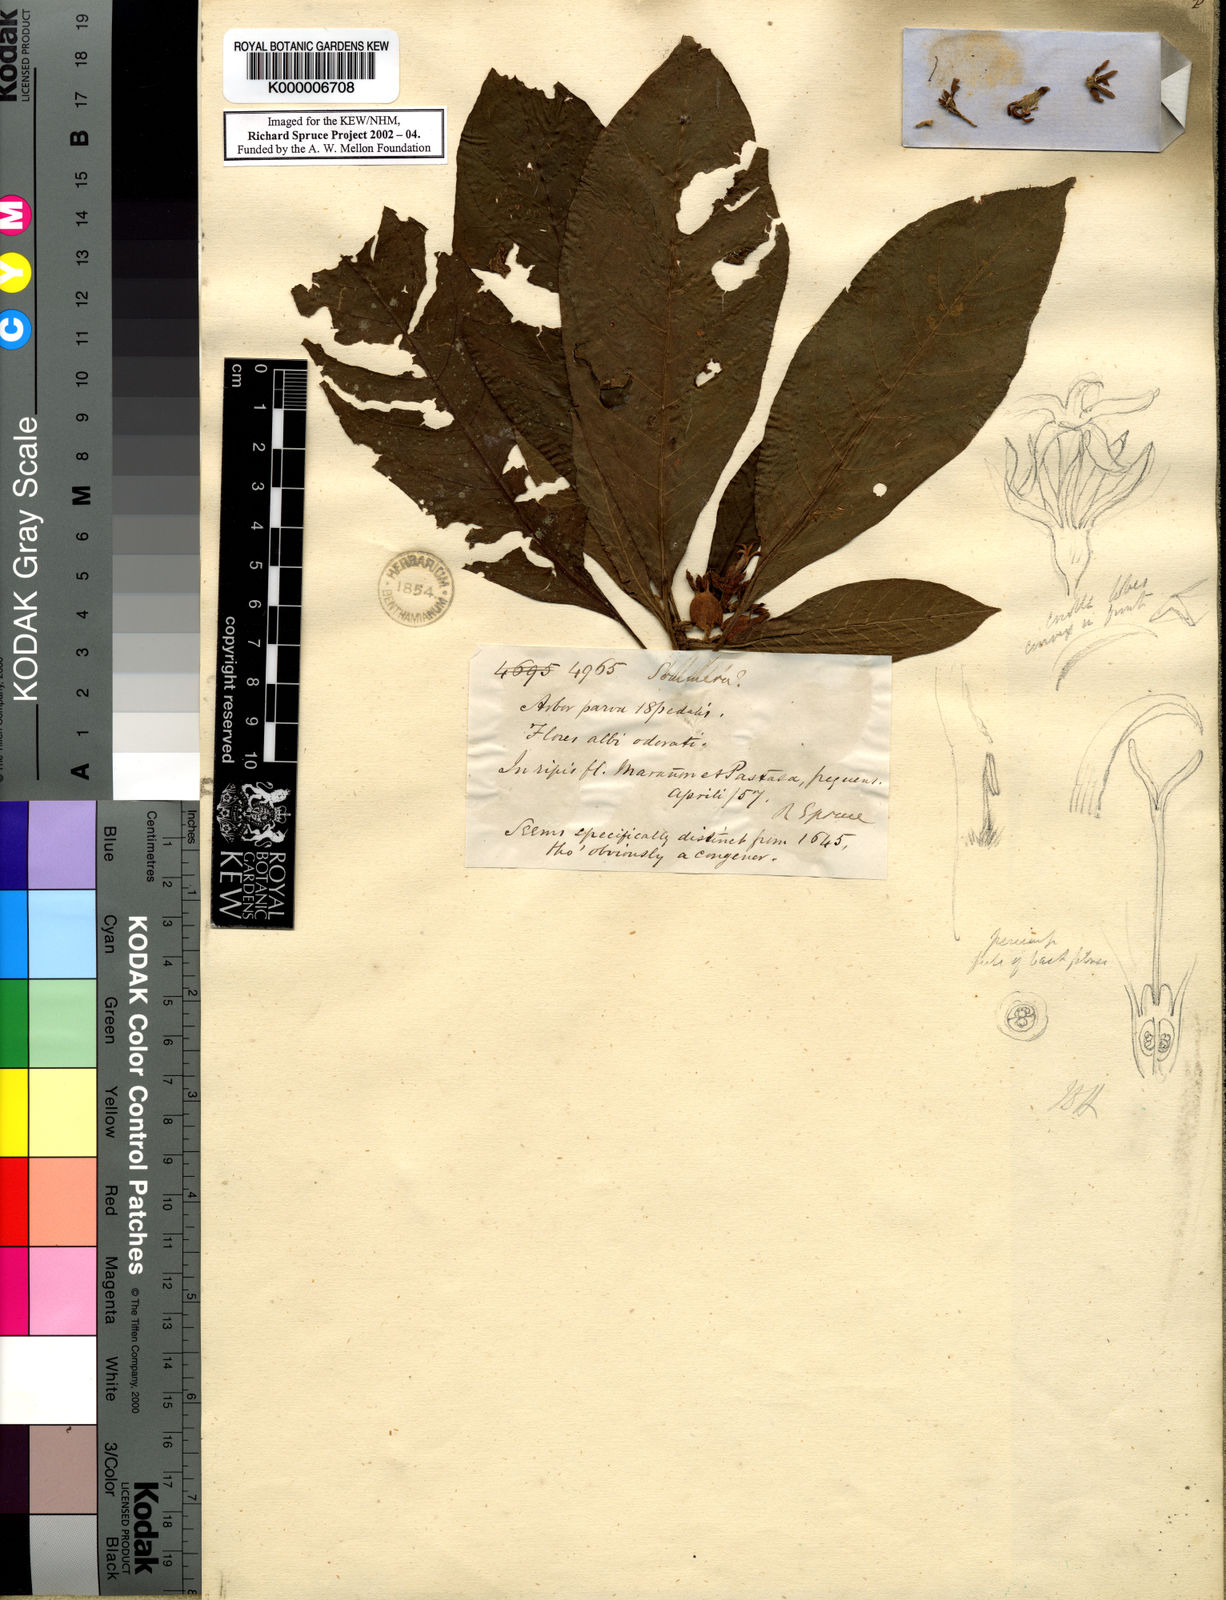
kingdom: Plantae
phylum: Tracheophyta
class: Magnoliopsida
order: Gentianales
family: Rubiaceae
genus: Sommera
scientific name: Sommera sabiceoides
